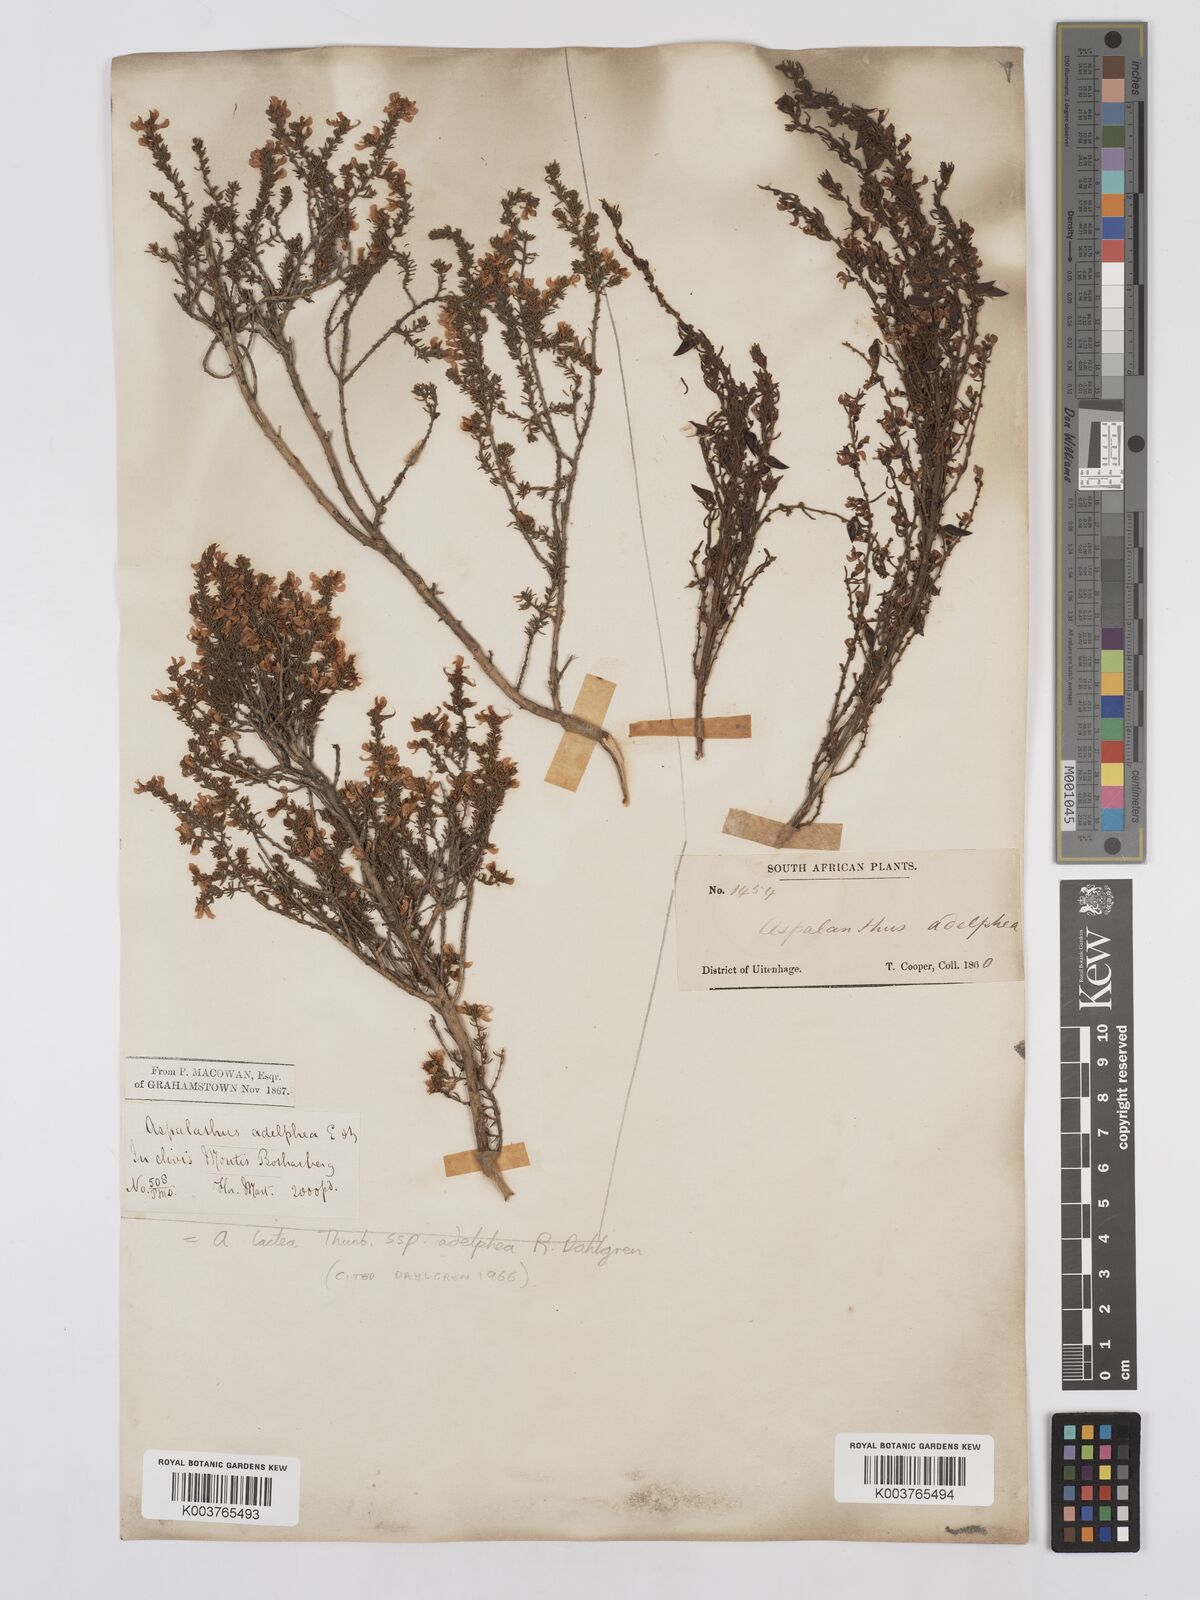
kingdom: Plantae
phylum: Tracheophyta
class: Magnoliopsida
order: Fabales
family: Fabaceae
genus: Aspalathus
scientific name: Aspalathus lactea
